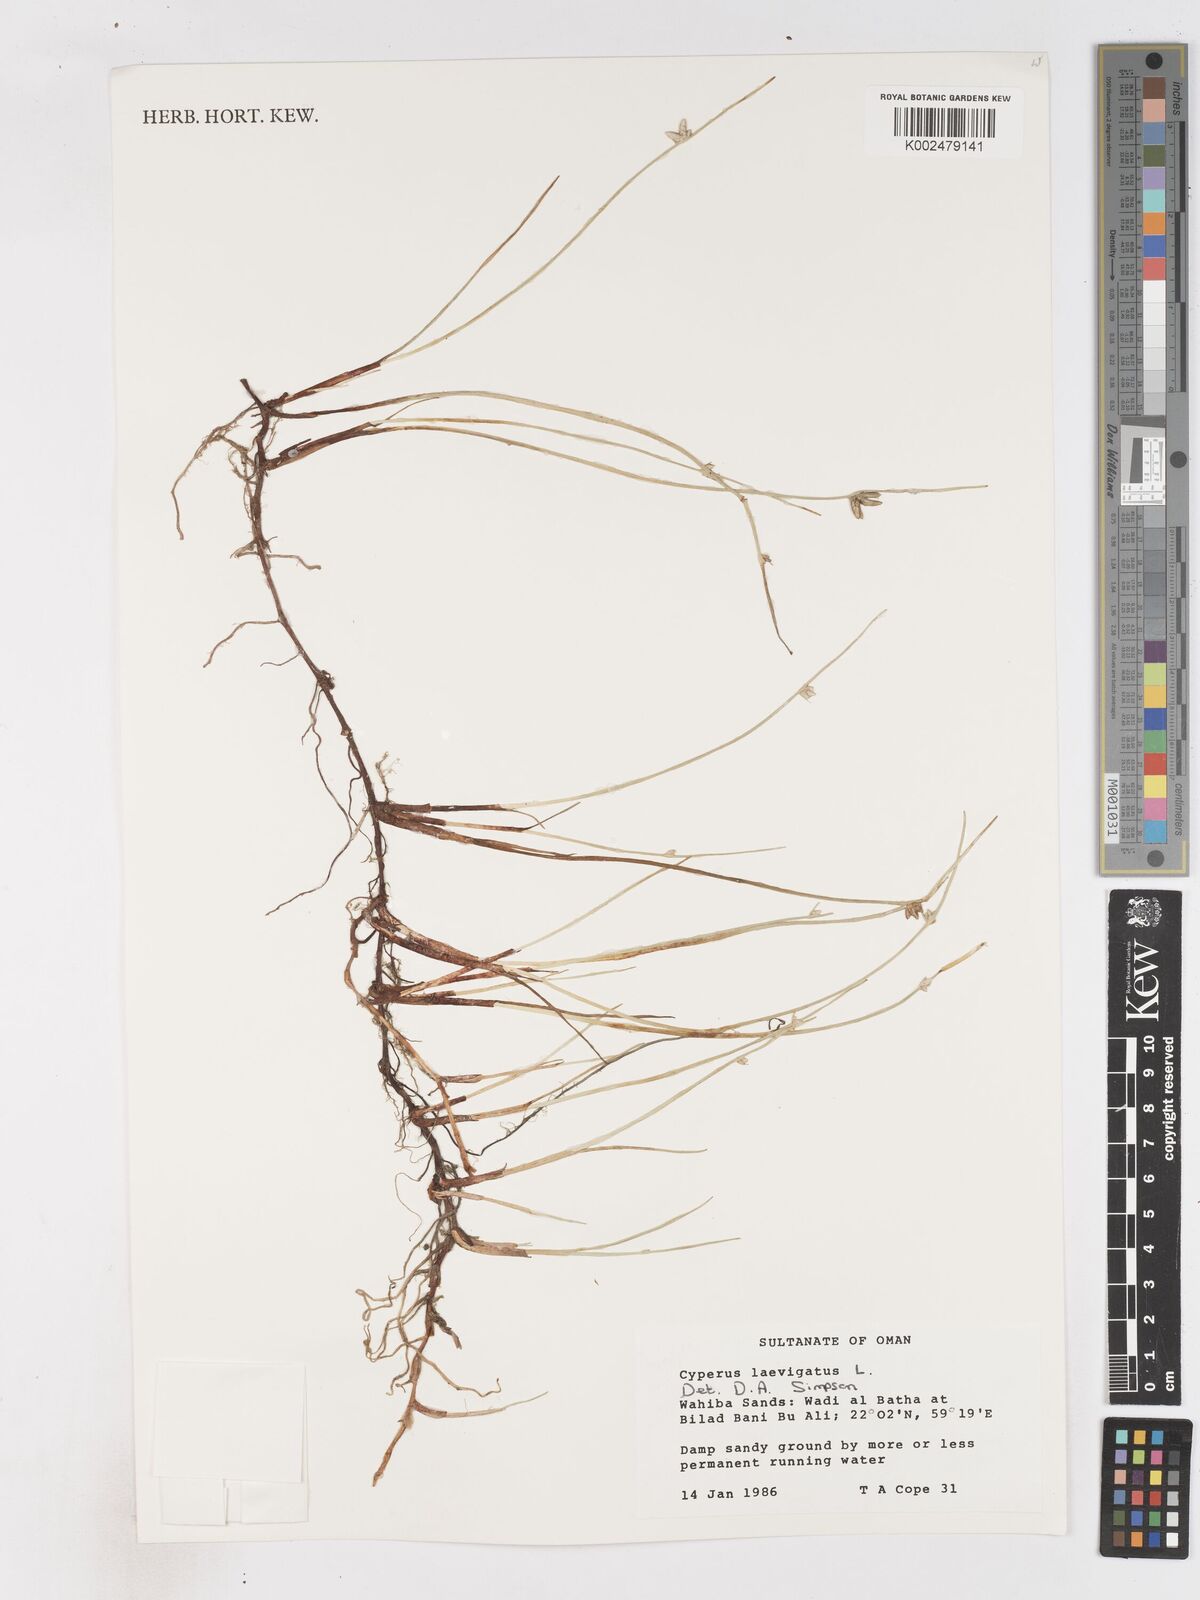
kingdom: Plantae
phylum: Tracheophyta
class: Liliopsida
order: Poales
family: Cyperaceae
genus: Cyperus
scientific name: Cyperus laevigatus
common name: Smooth flat sedge
